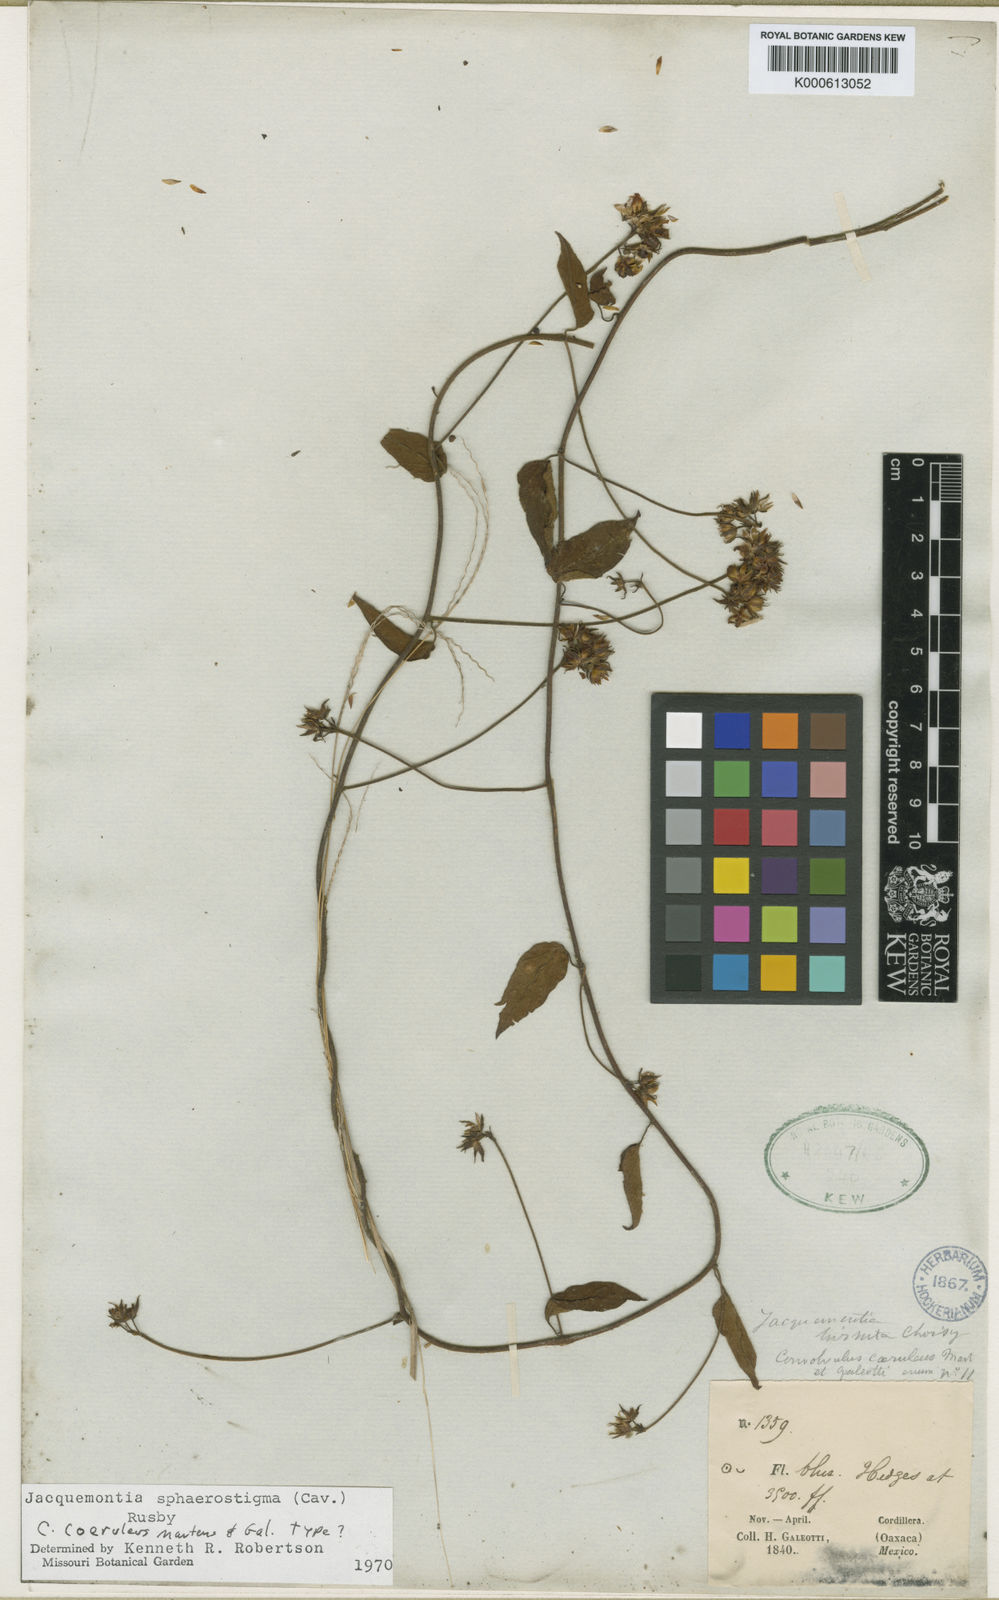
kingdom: Plantae
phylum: Tracheophyta
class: Magnoliopsida
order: Solanales
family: Convolvulaceae
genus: Jacquemontia
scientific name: Jacquemontia sphaerostigma
